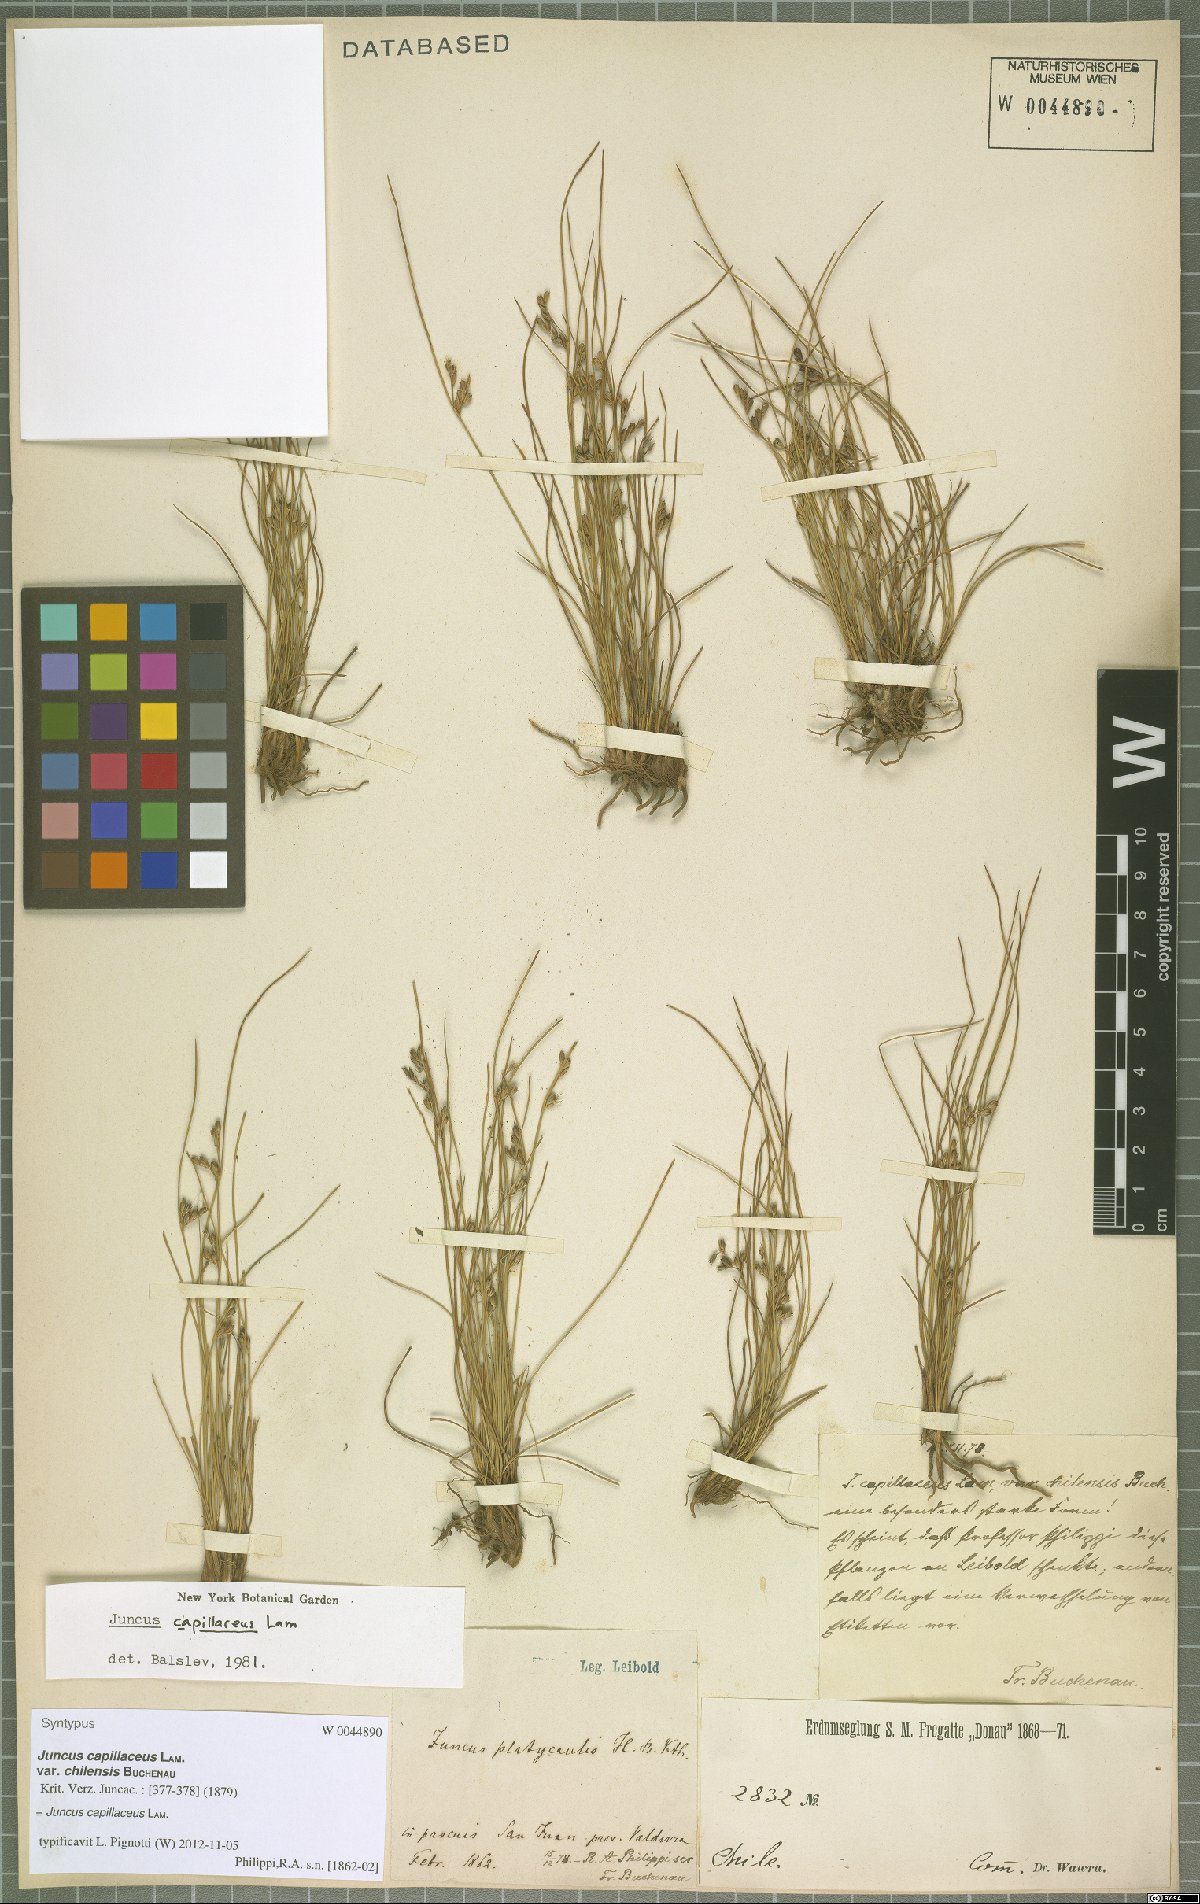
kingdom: Plantae
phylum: Tracheophyta
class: Liliopsida
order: Poales
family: Juncaceae
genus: Juncus
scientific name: Juncus capillaceus
